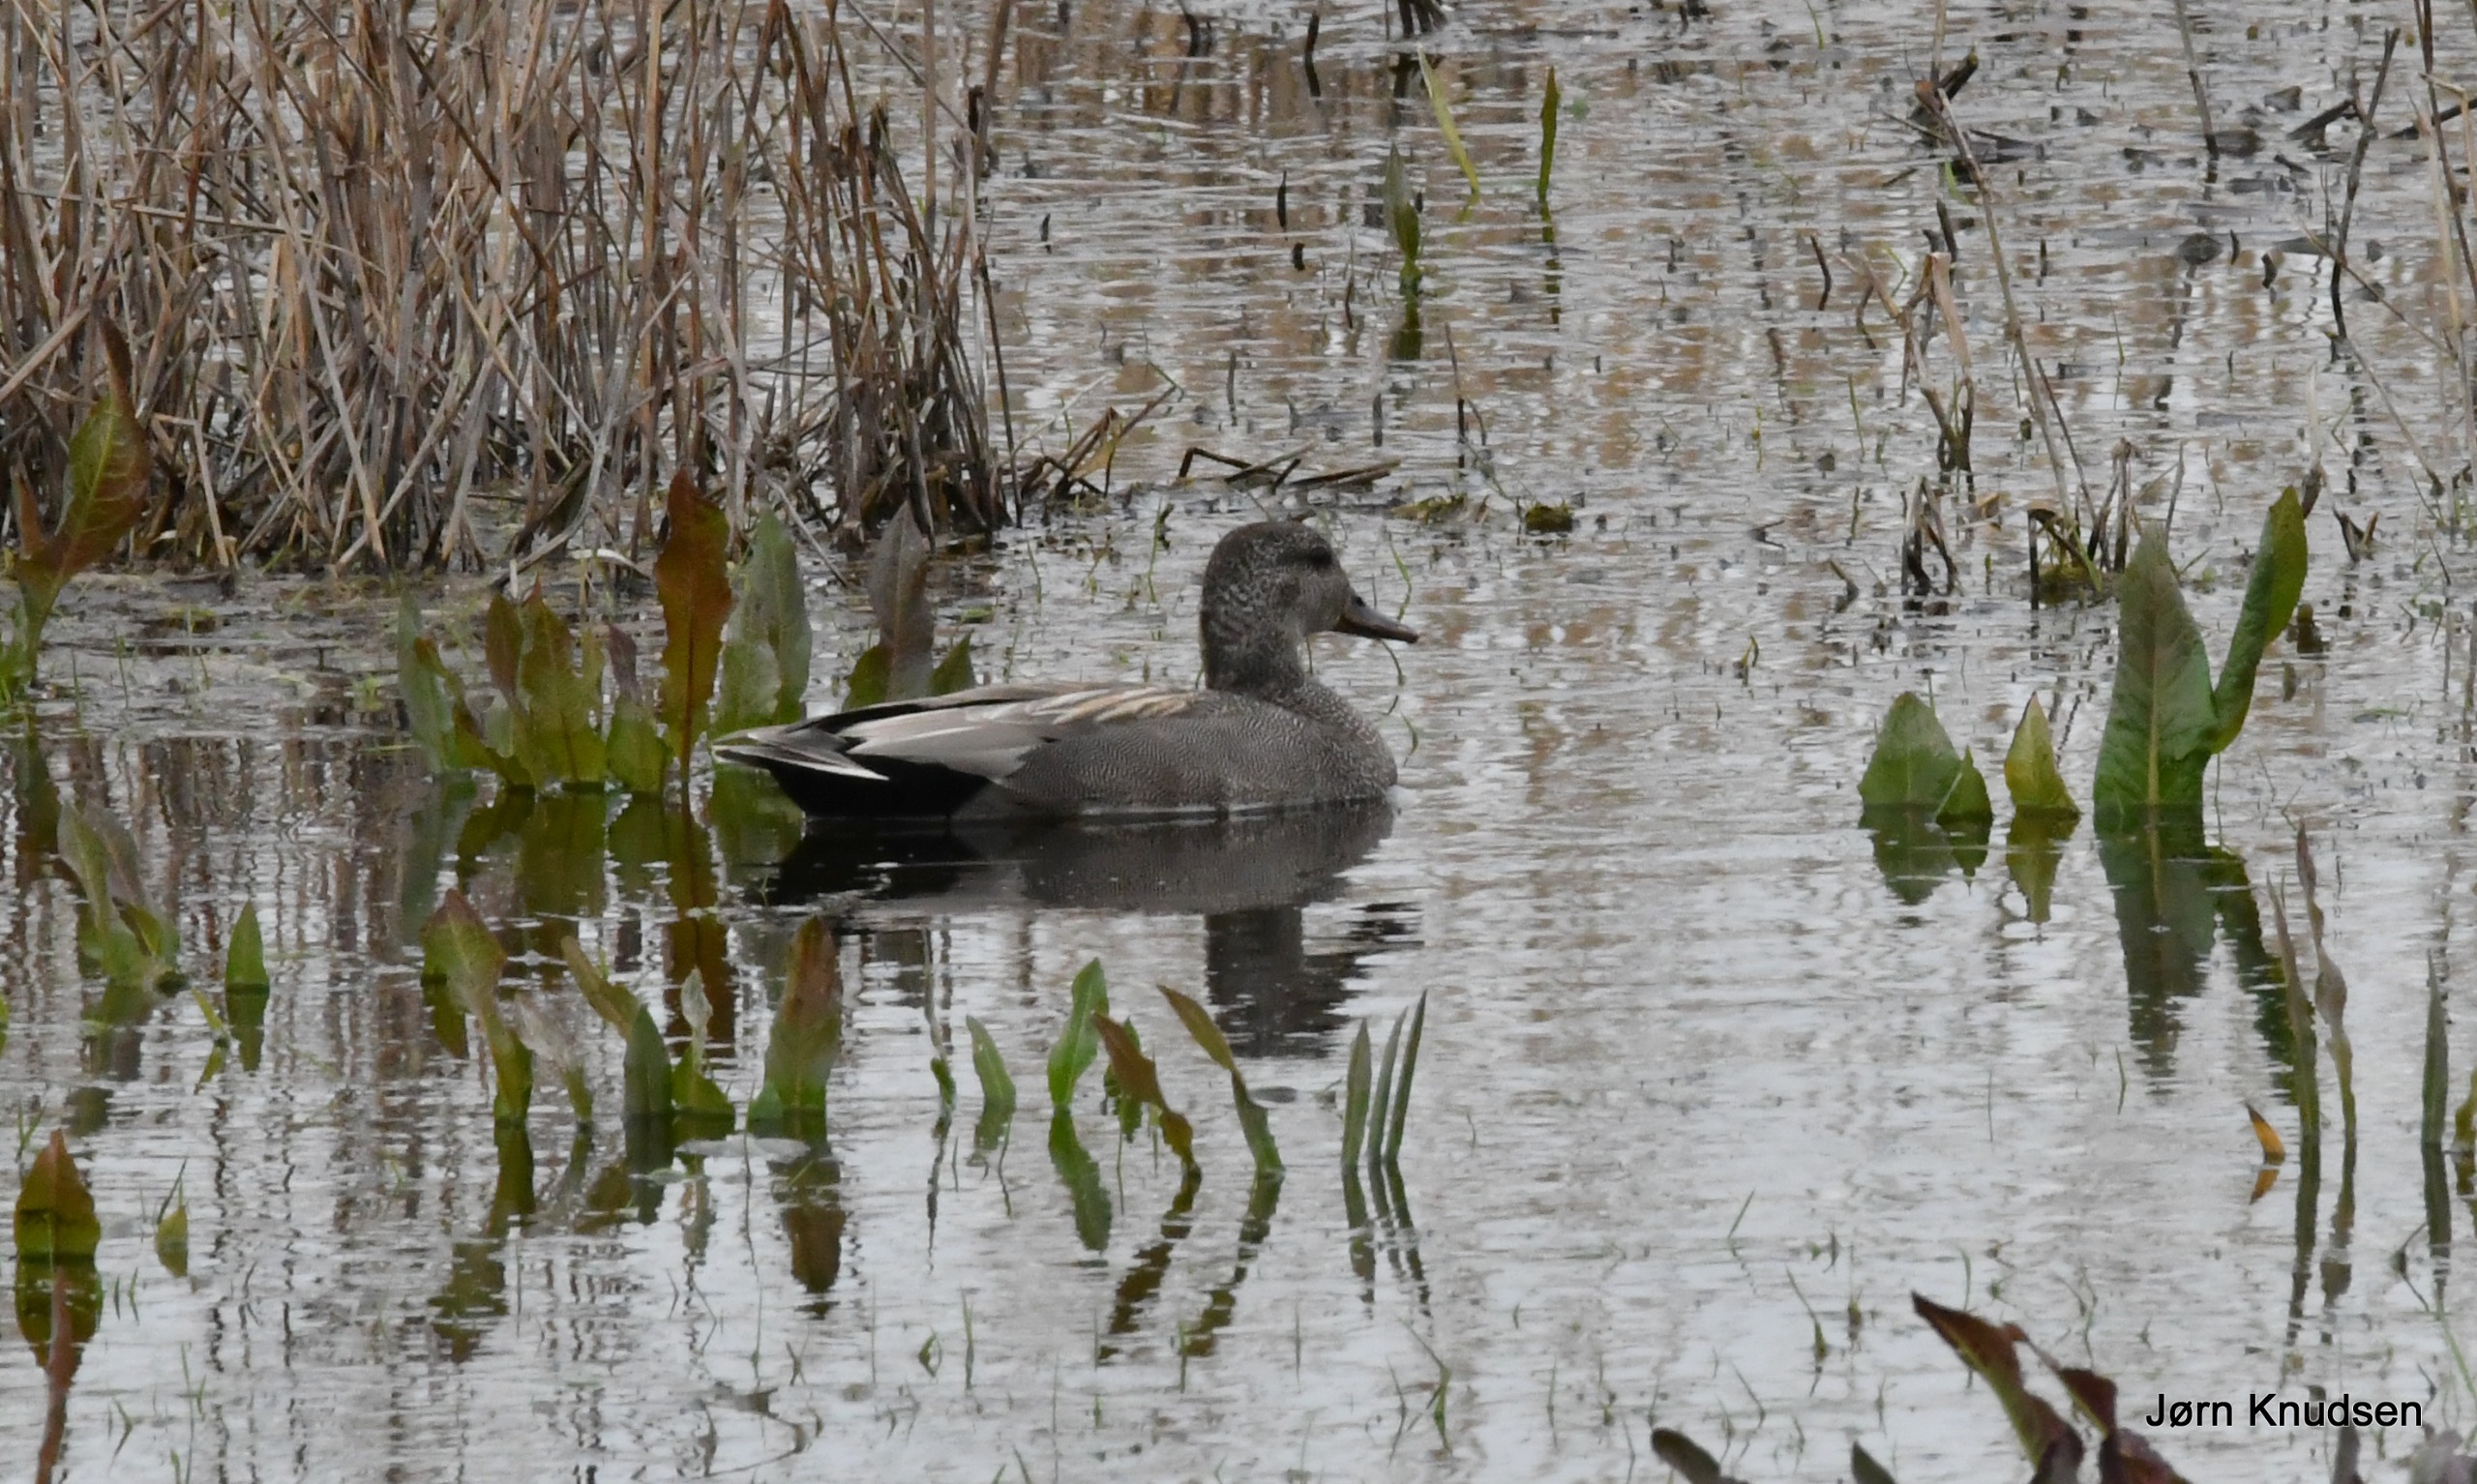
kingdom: Animalia
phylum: Chordata
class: Aves
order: Anseriformes
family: Anatidae
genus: Mareca
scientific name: Mareca strepera
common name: Knarand
